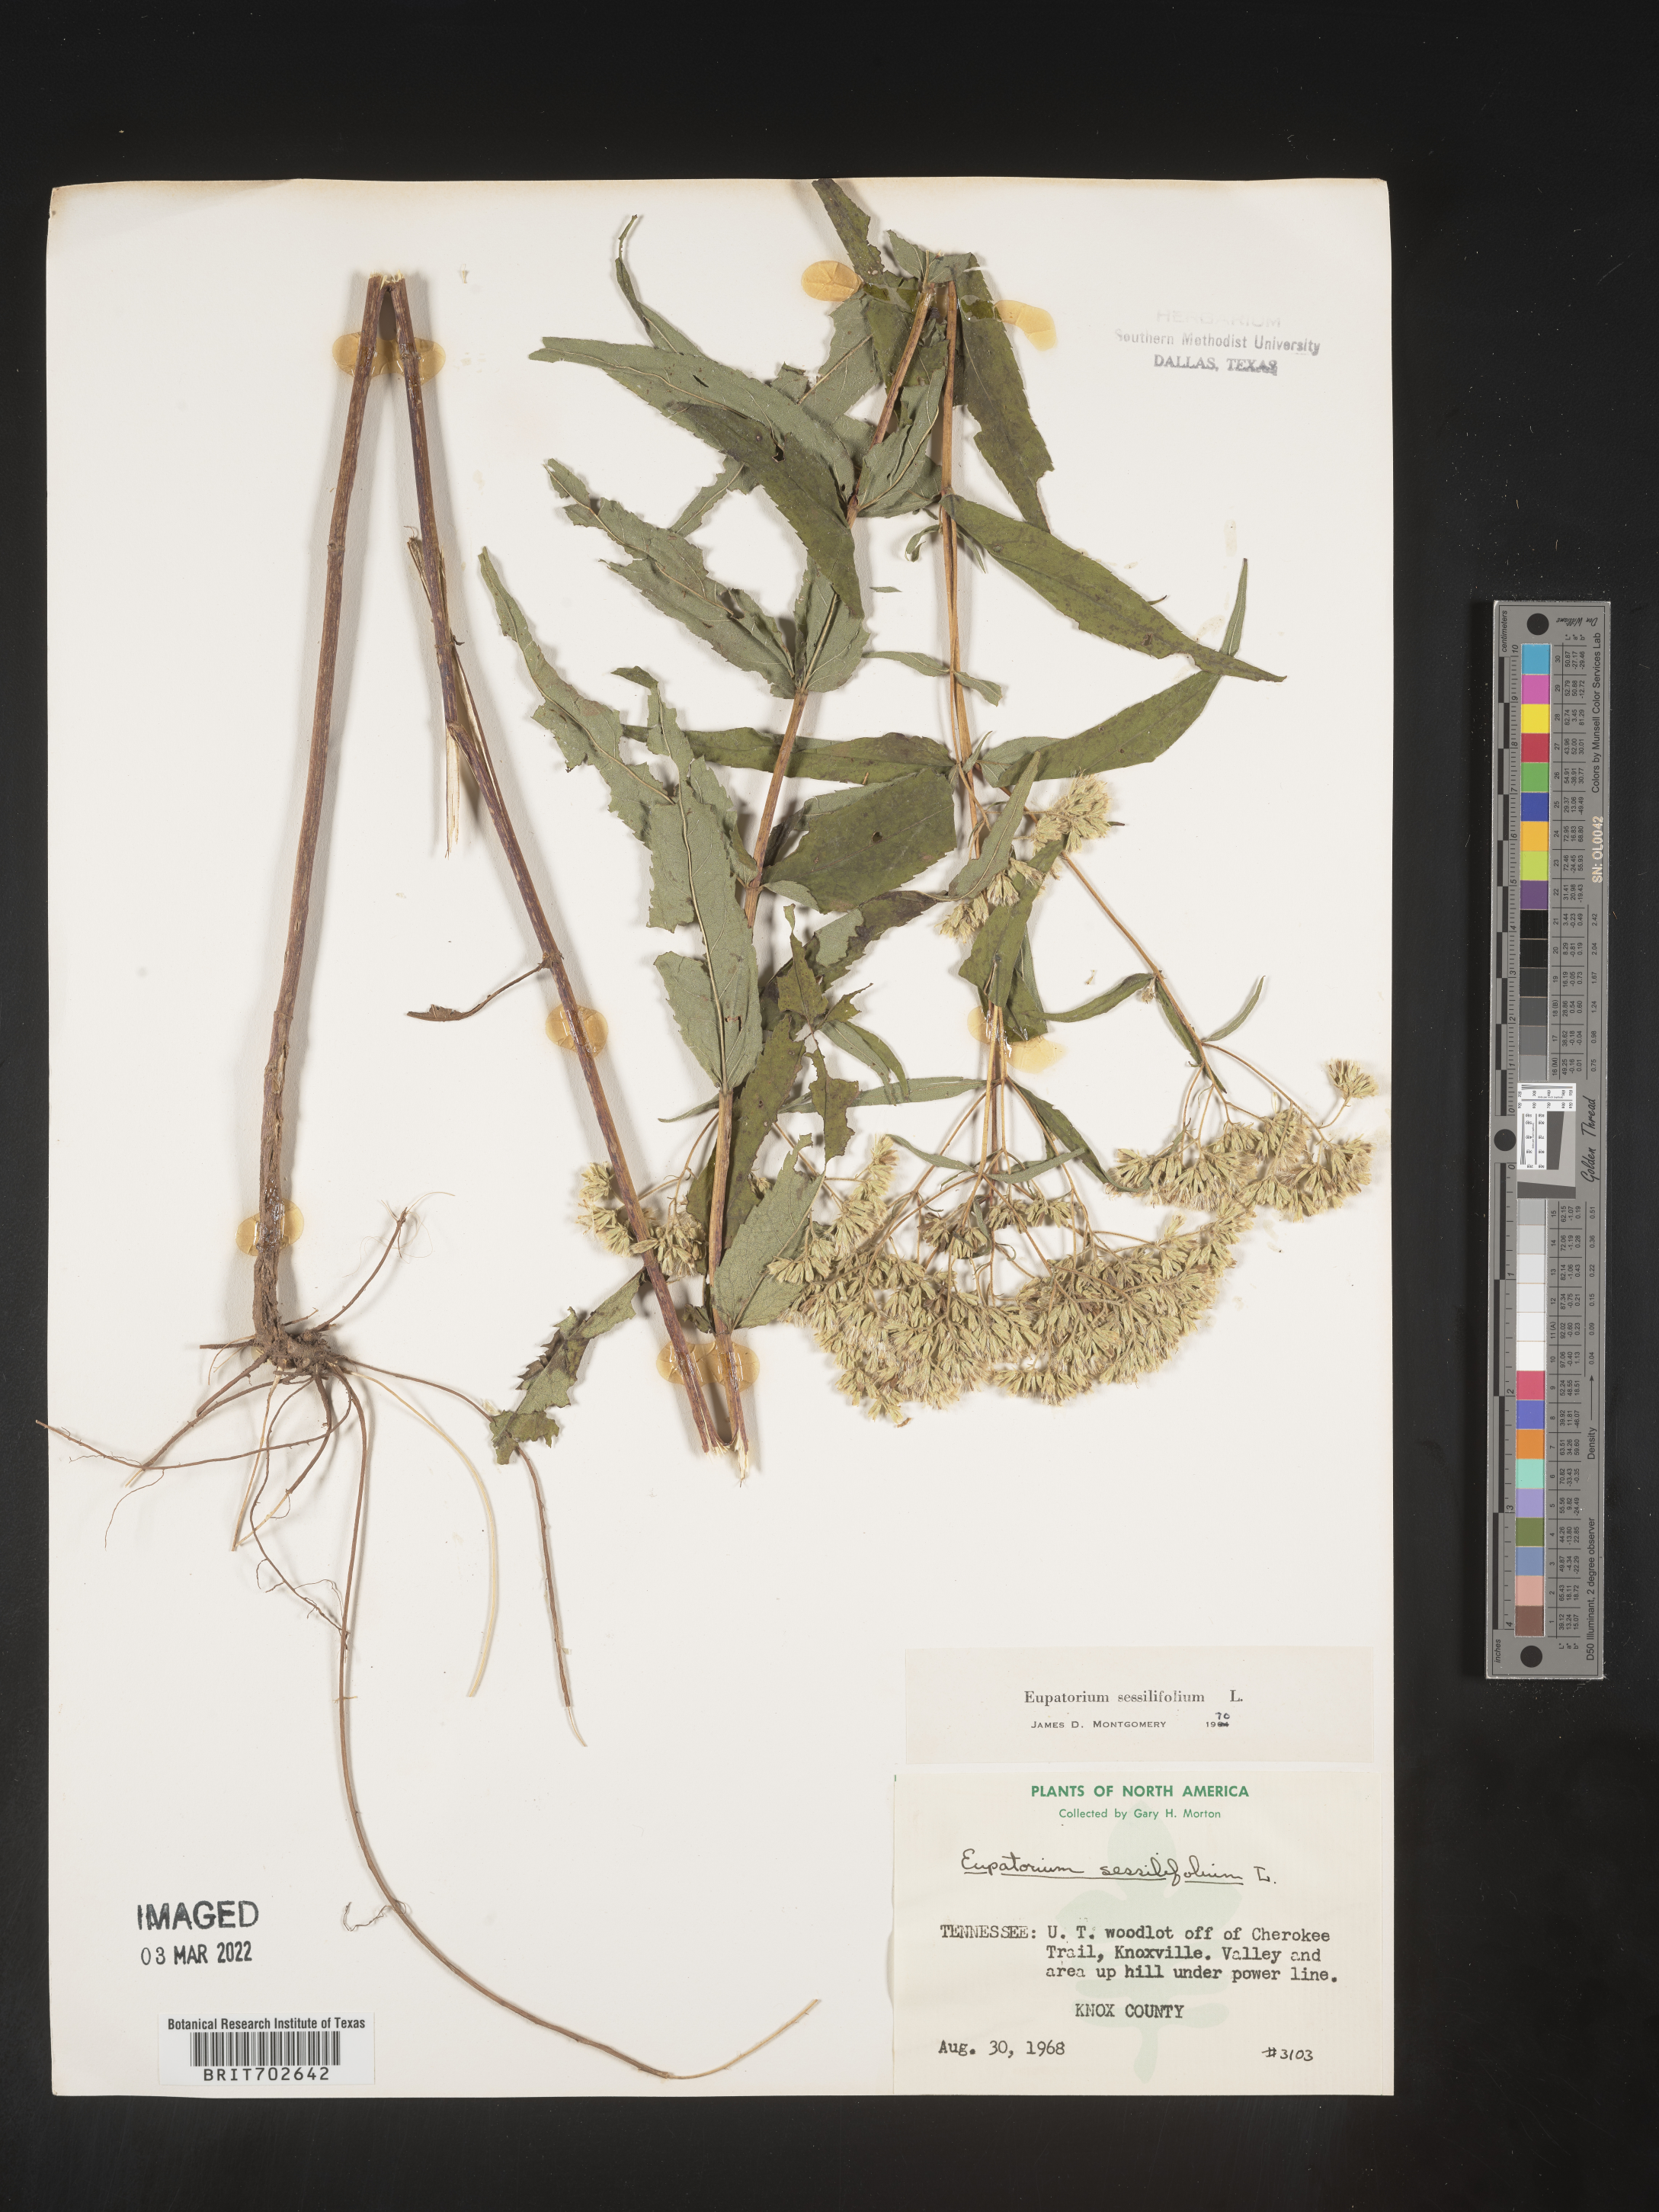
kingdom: Plantae
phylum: Tracheophyta
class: Magnoliopsida
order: Asterales
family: Asteraceae
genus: Eupatorium
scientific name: Eupatorium sessilifolium
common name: Upland boneset
